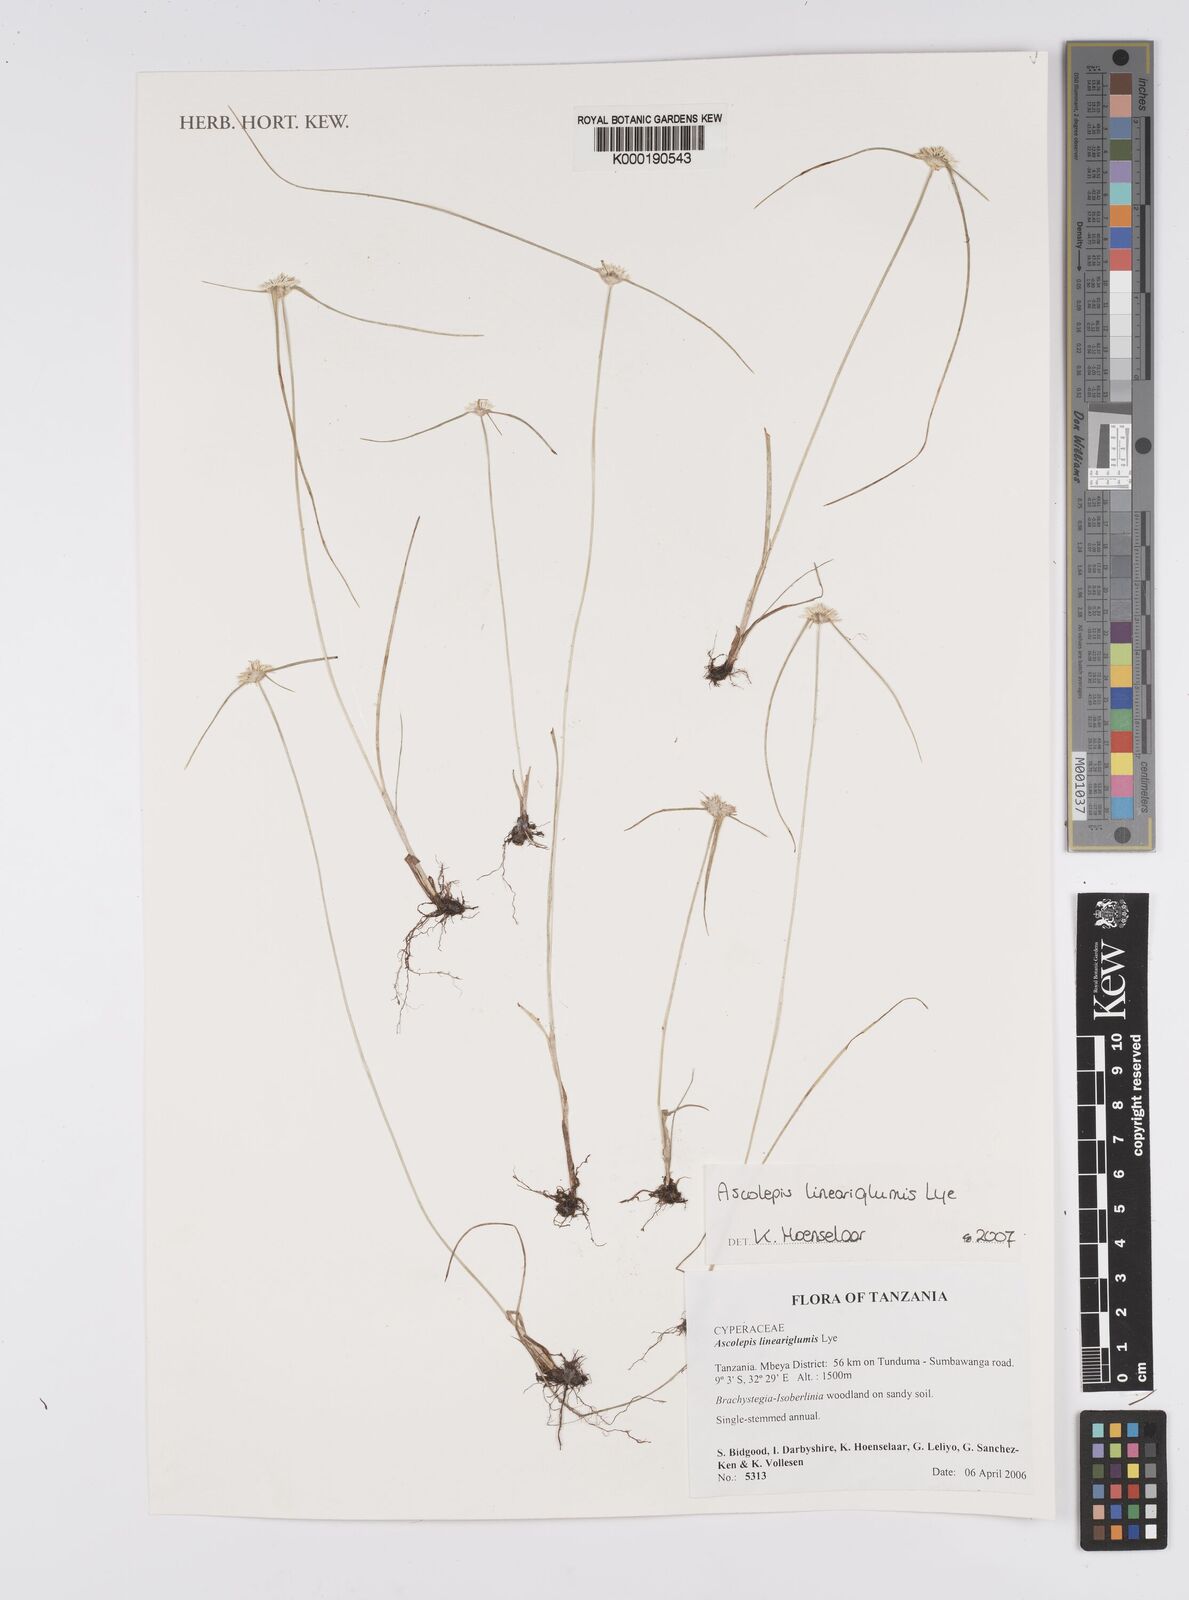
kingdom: Plantae
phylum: Tracheophyta
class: Liliopsida
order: Poales
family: Cyperaceae
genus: Cyperus
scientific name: Cyperus proteus
